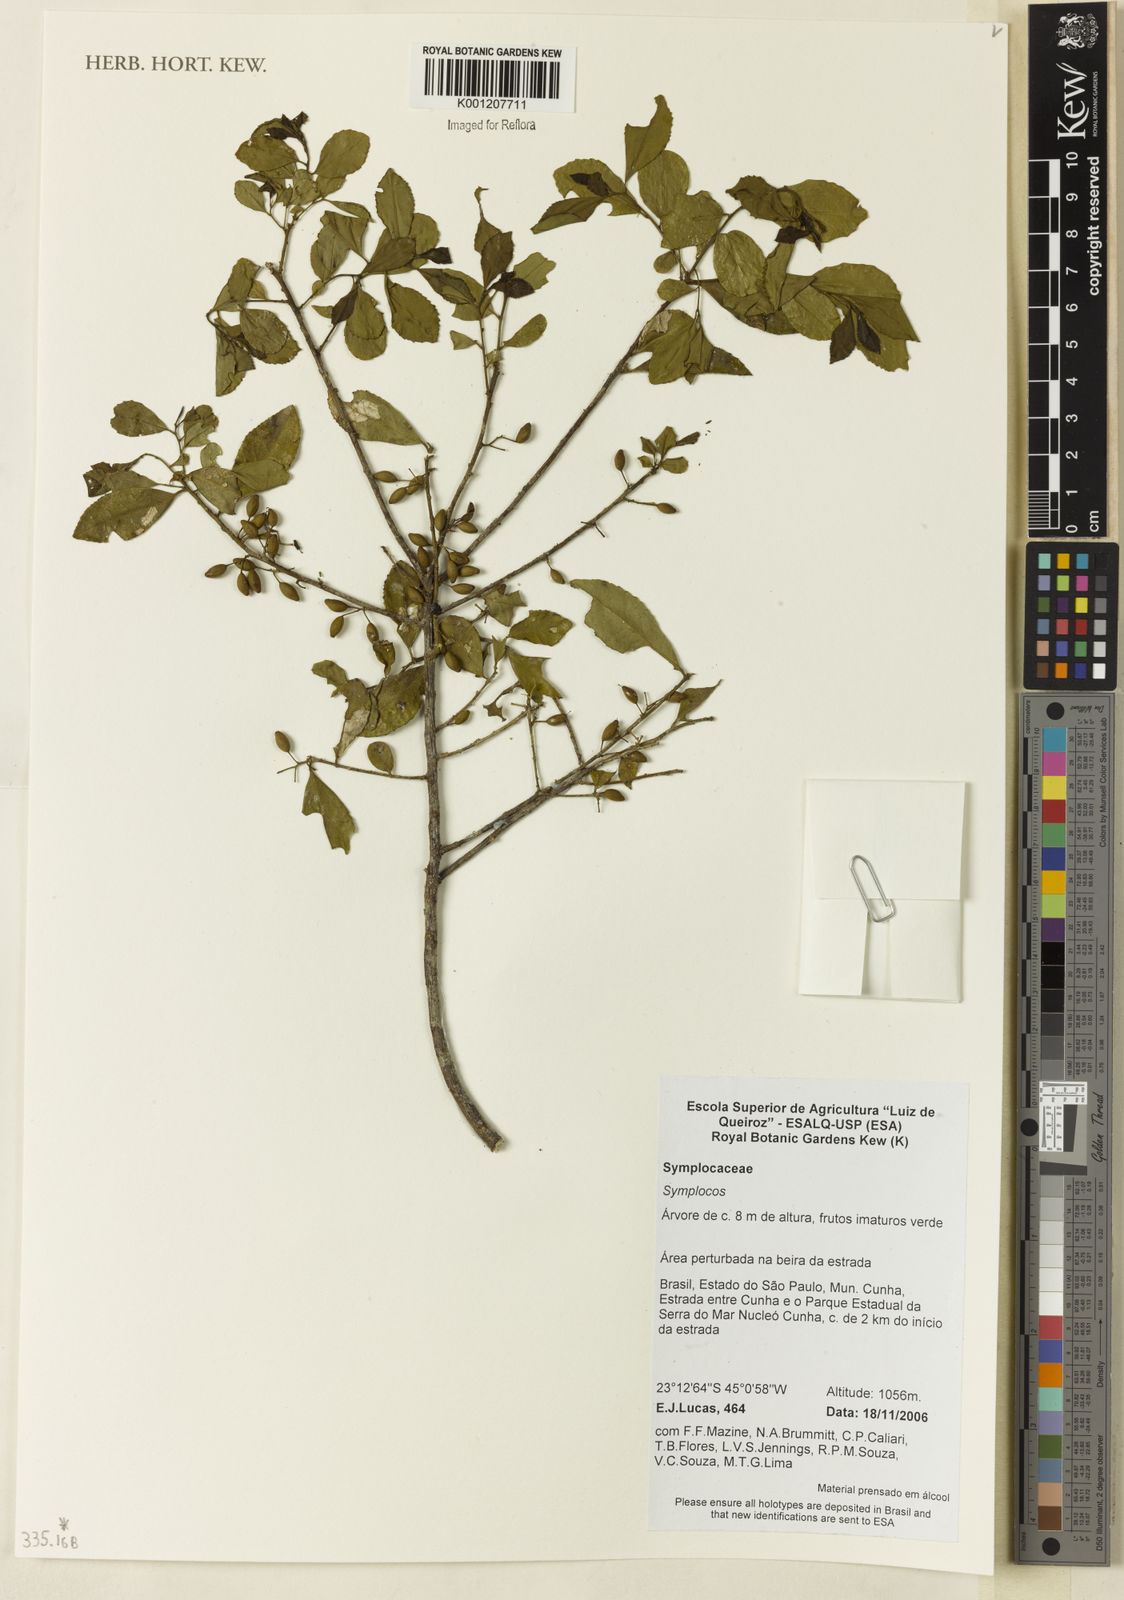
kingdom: Plantae
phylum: Tracheophyta
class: Magnoliopsida
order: Ericales
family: Symplocaceae
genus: Symplocos
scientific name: Symplocos
